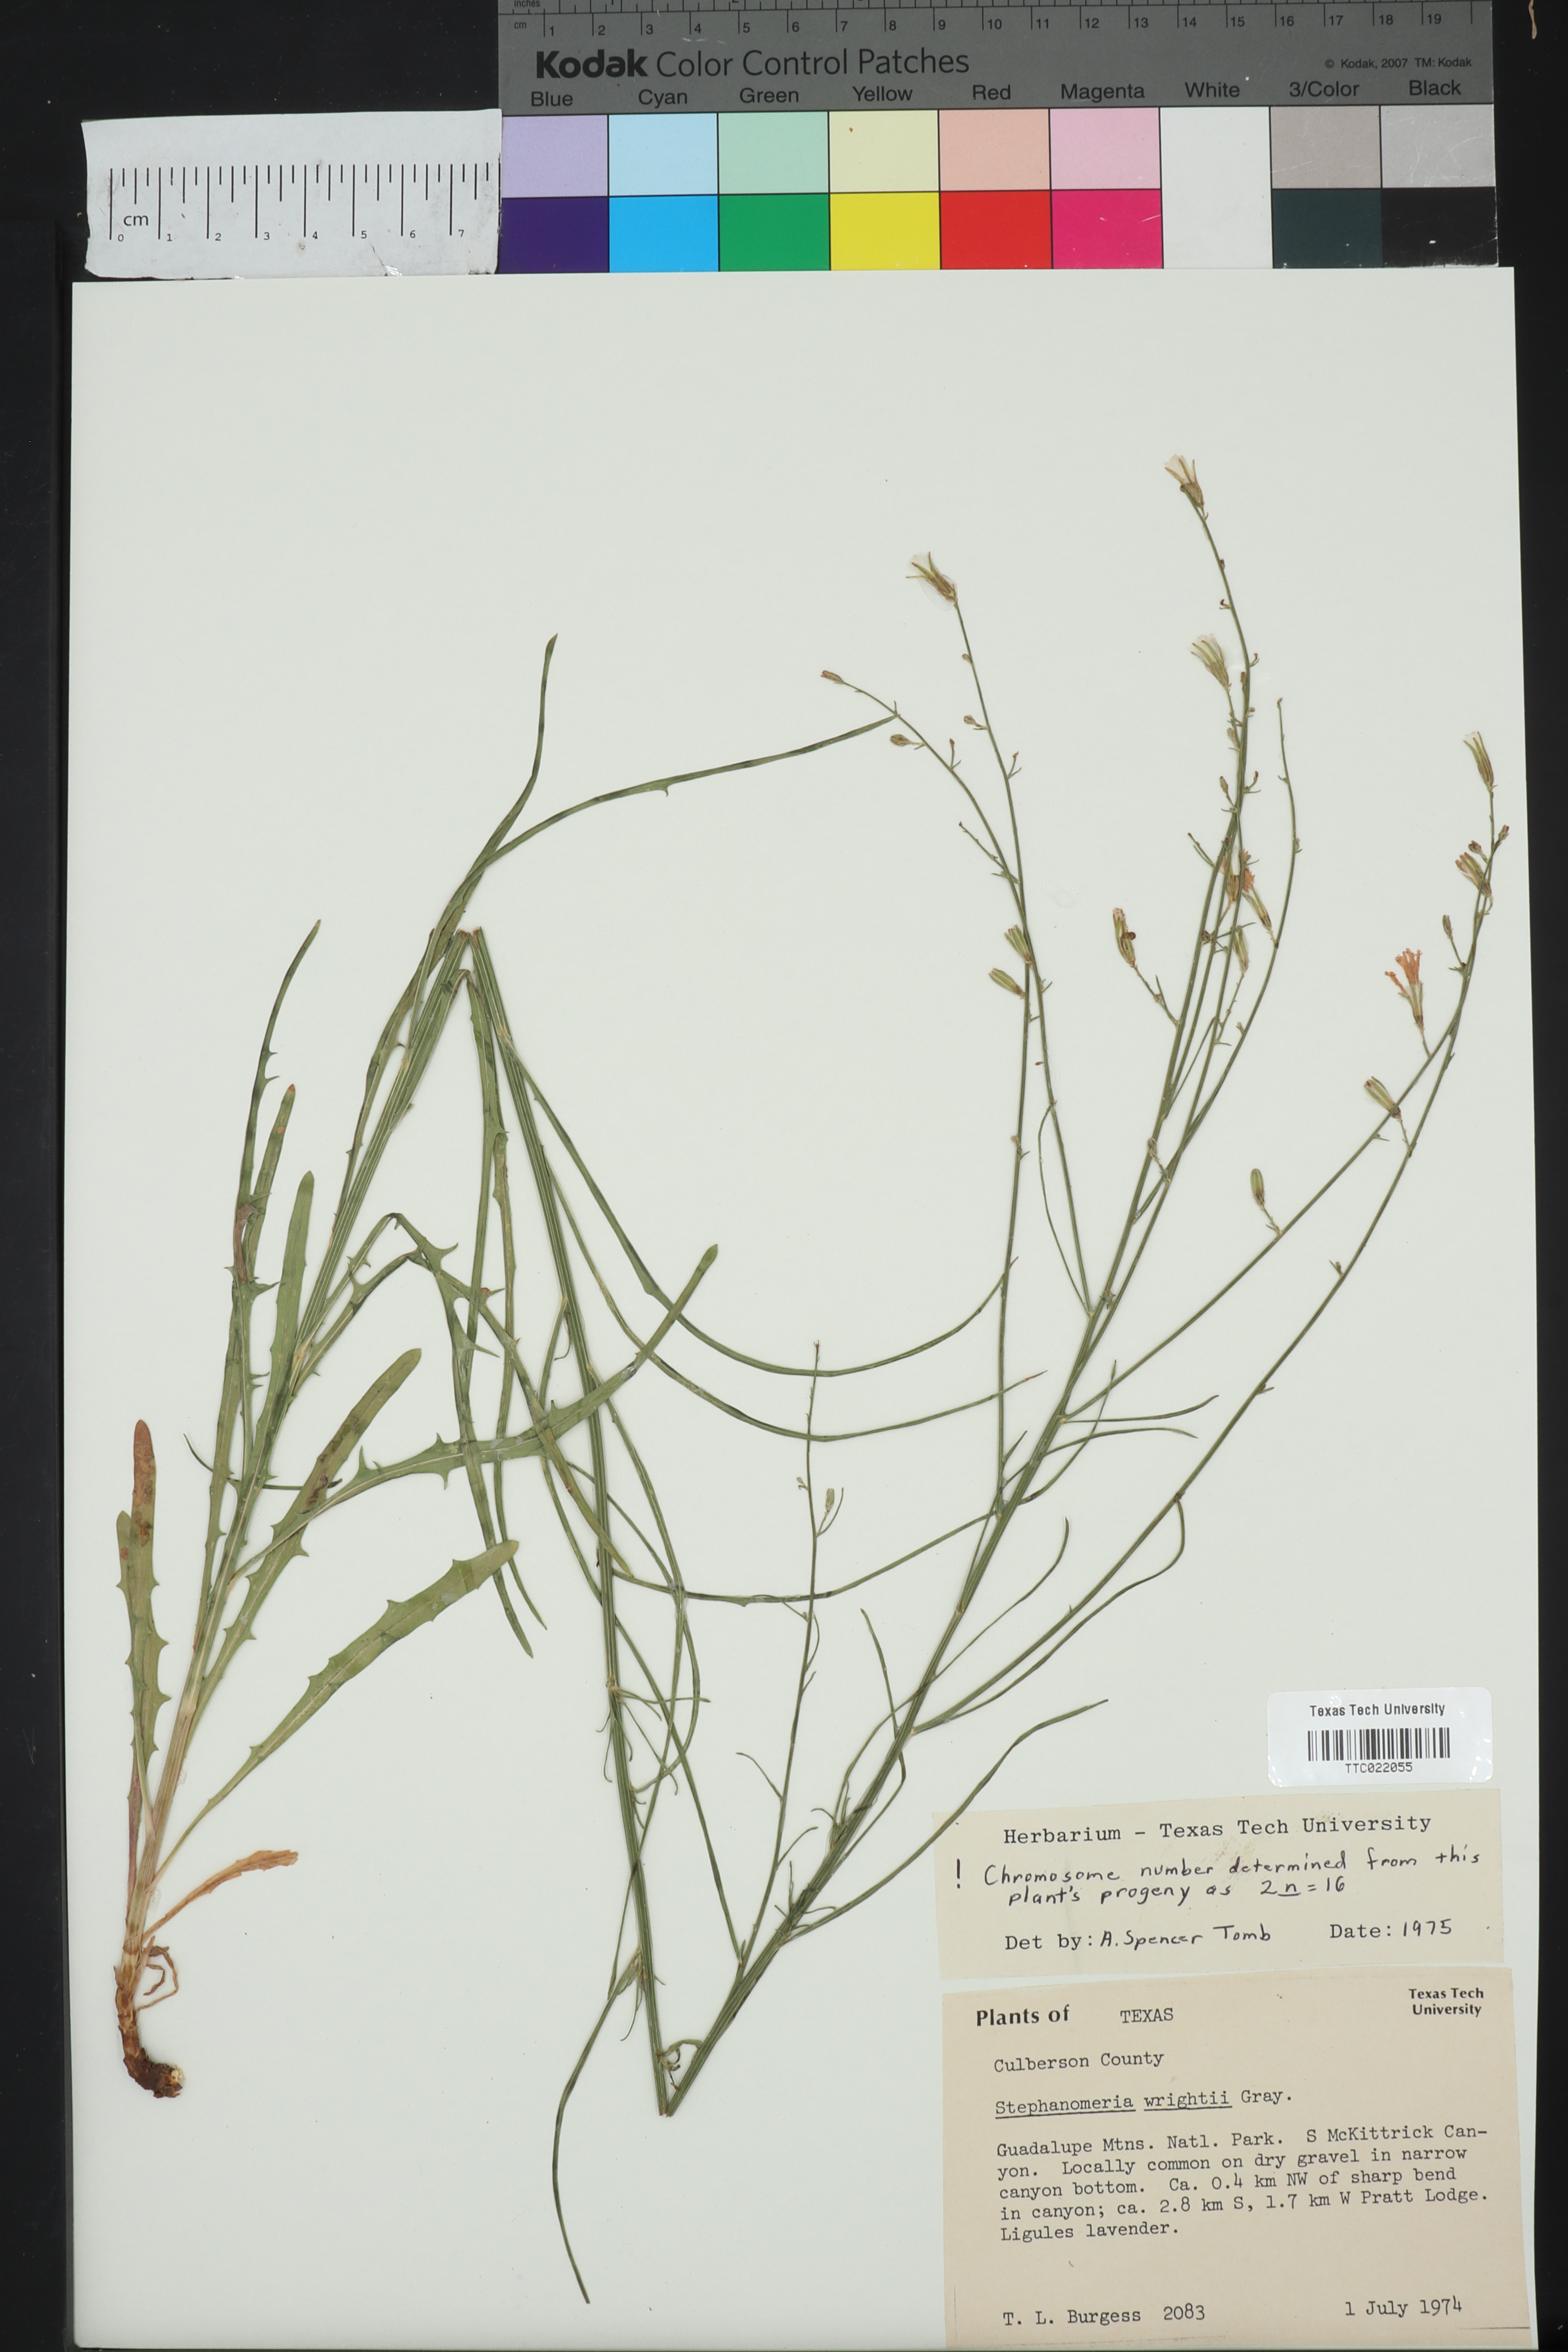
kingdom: Plantae
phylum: Tracheophyta
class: Magnoliopsida
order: Asterales
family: Asteraceae
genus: Stephanomeria
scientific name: Stephanomeria tenuifolia
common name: Slender wirelettuce
